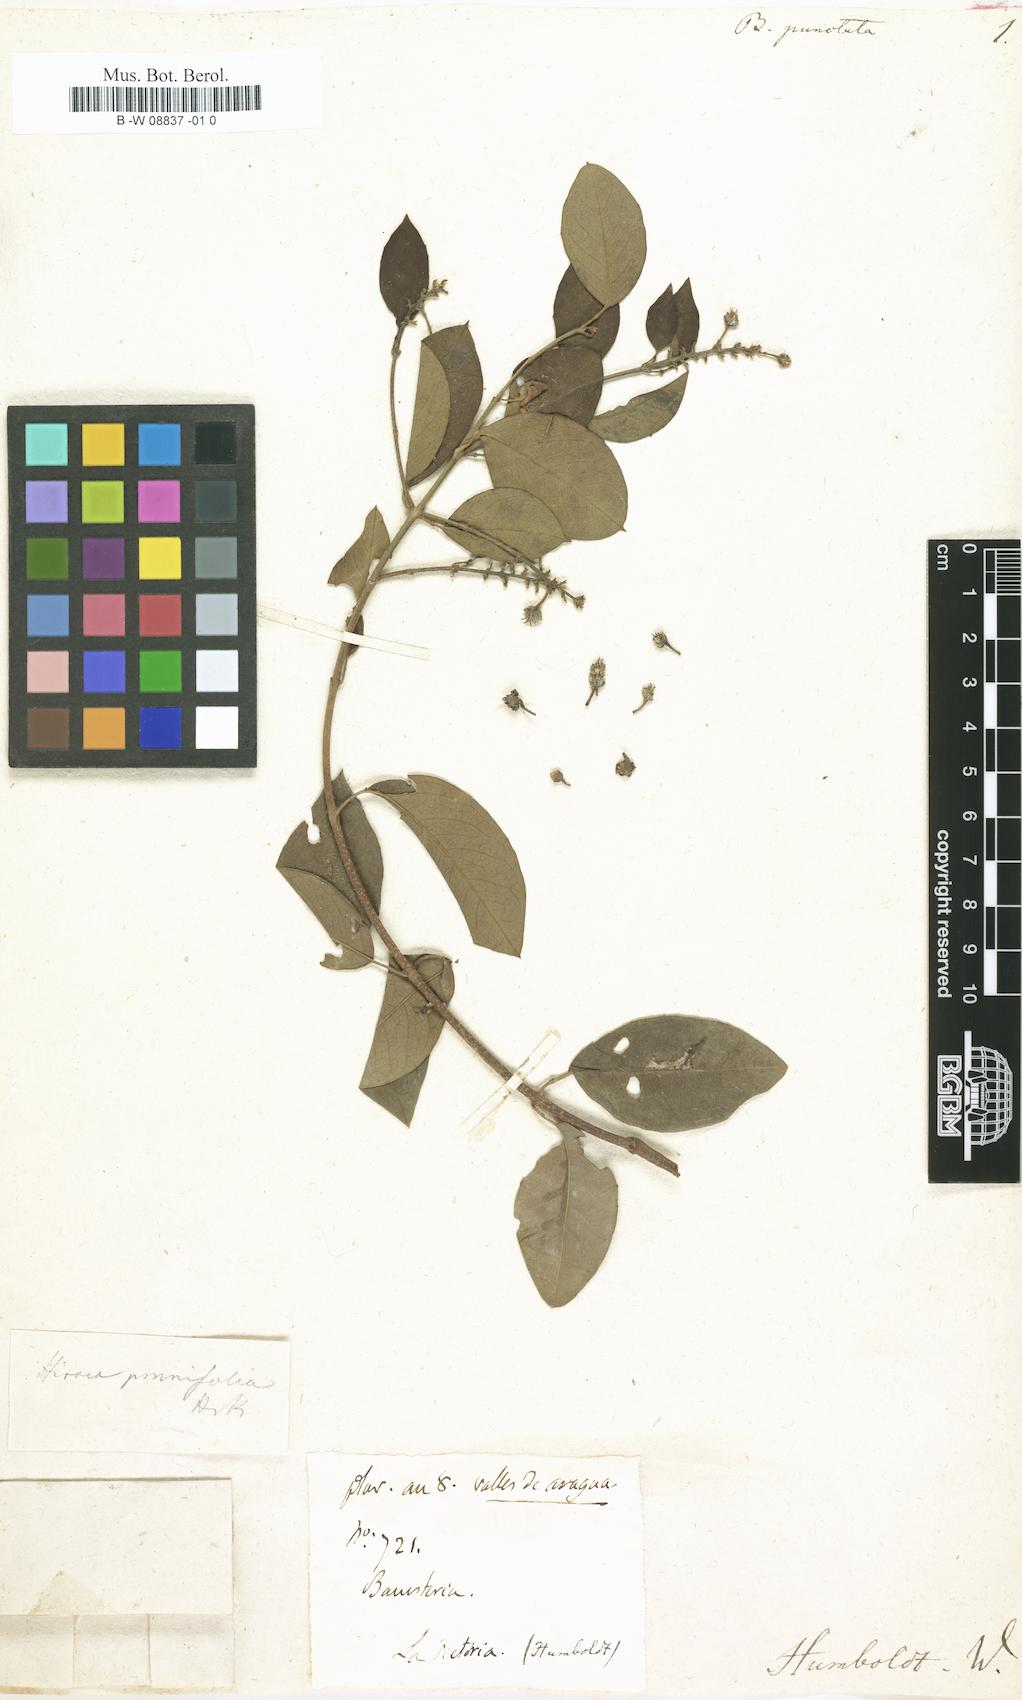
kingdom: Plantae
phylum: Tracheophyta
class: Magnoliopsida
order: Malpighiales
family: Malpighiaceae
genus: Heteropterys
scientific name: Heteropterys
